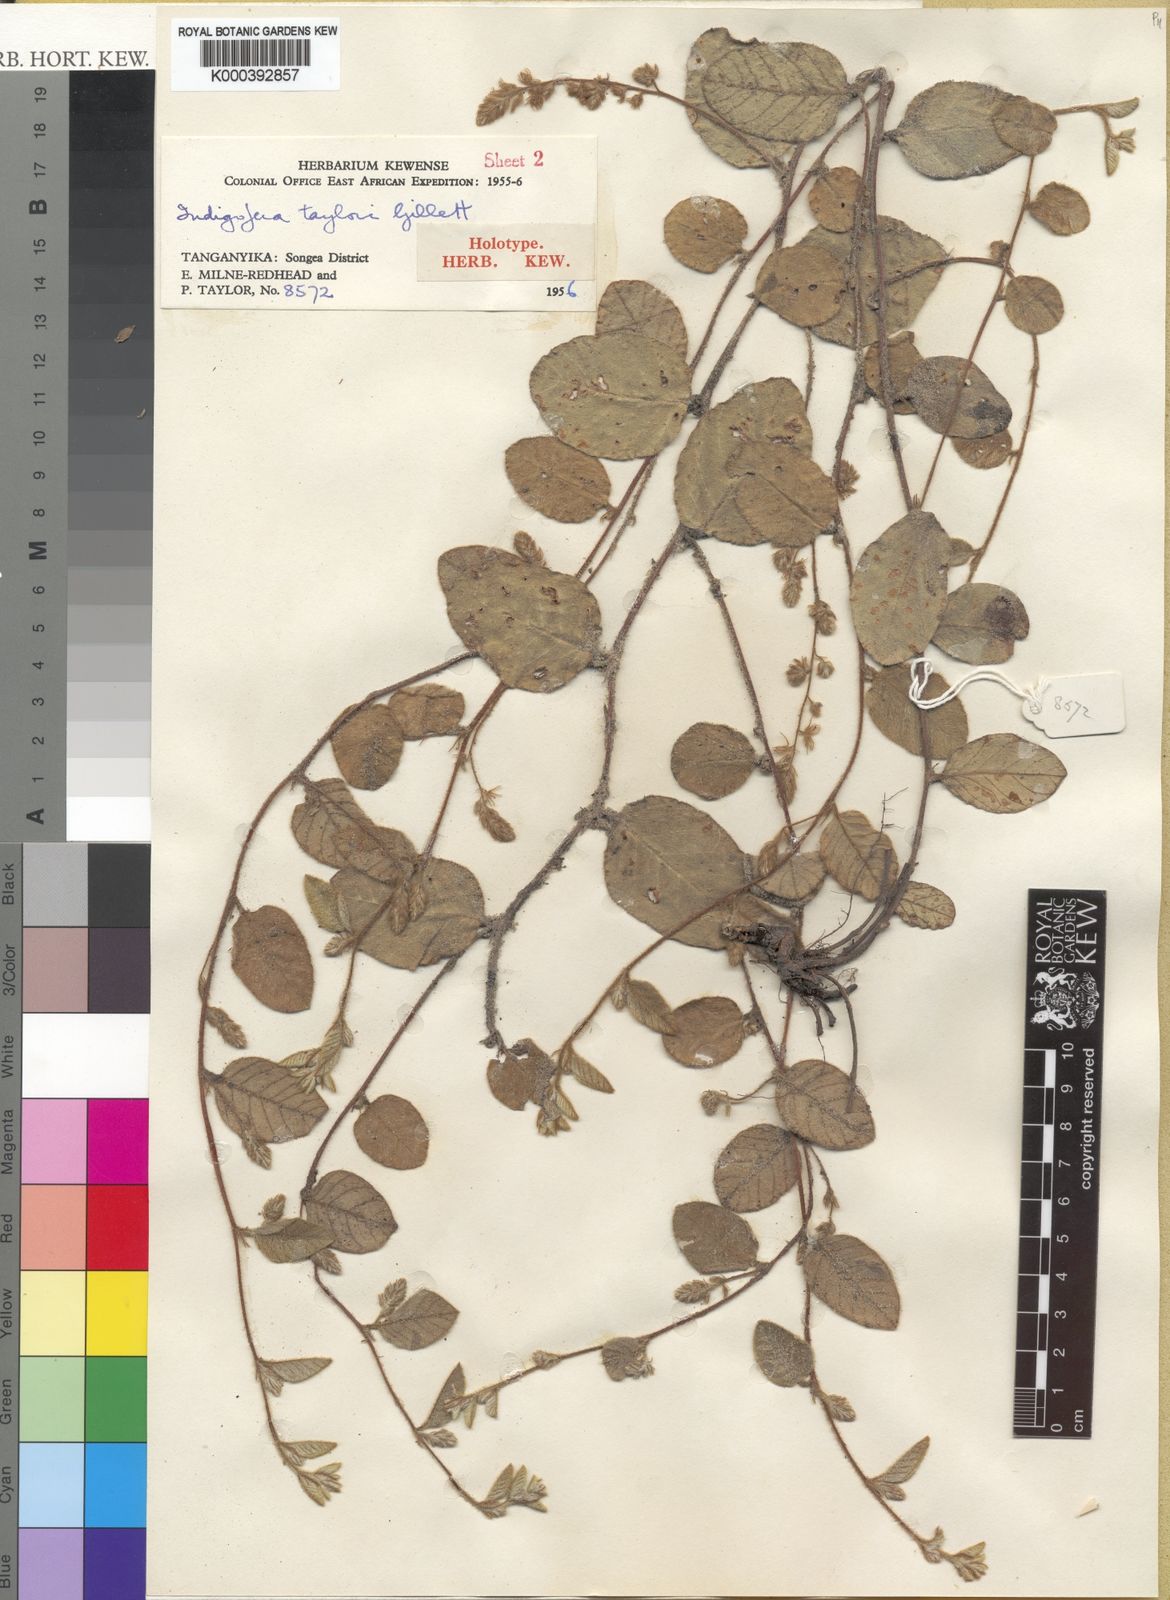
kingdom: Plantae
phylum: Tracheophyta
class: Magnoliopsida
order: Fabales
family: Fabaceae
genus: Indigofera
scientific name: Indigofera taylorii
